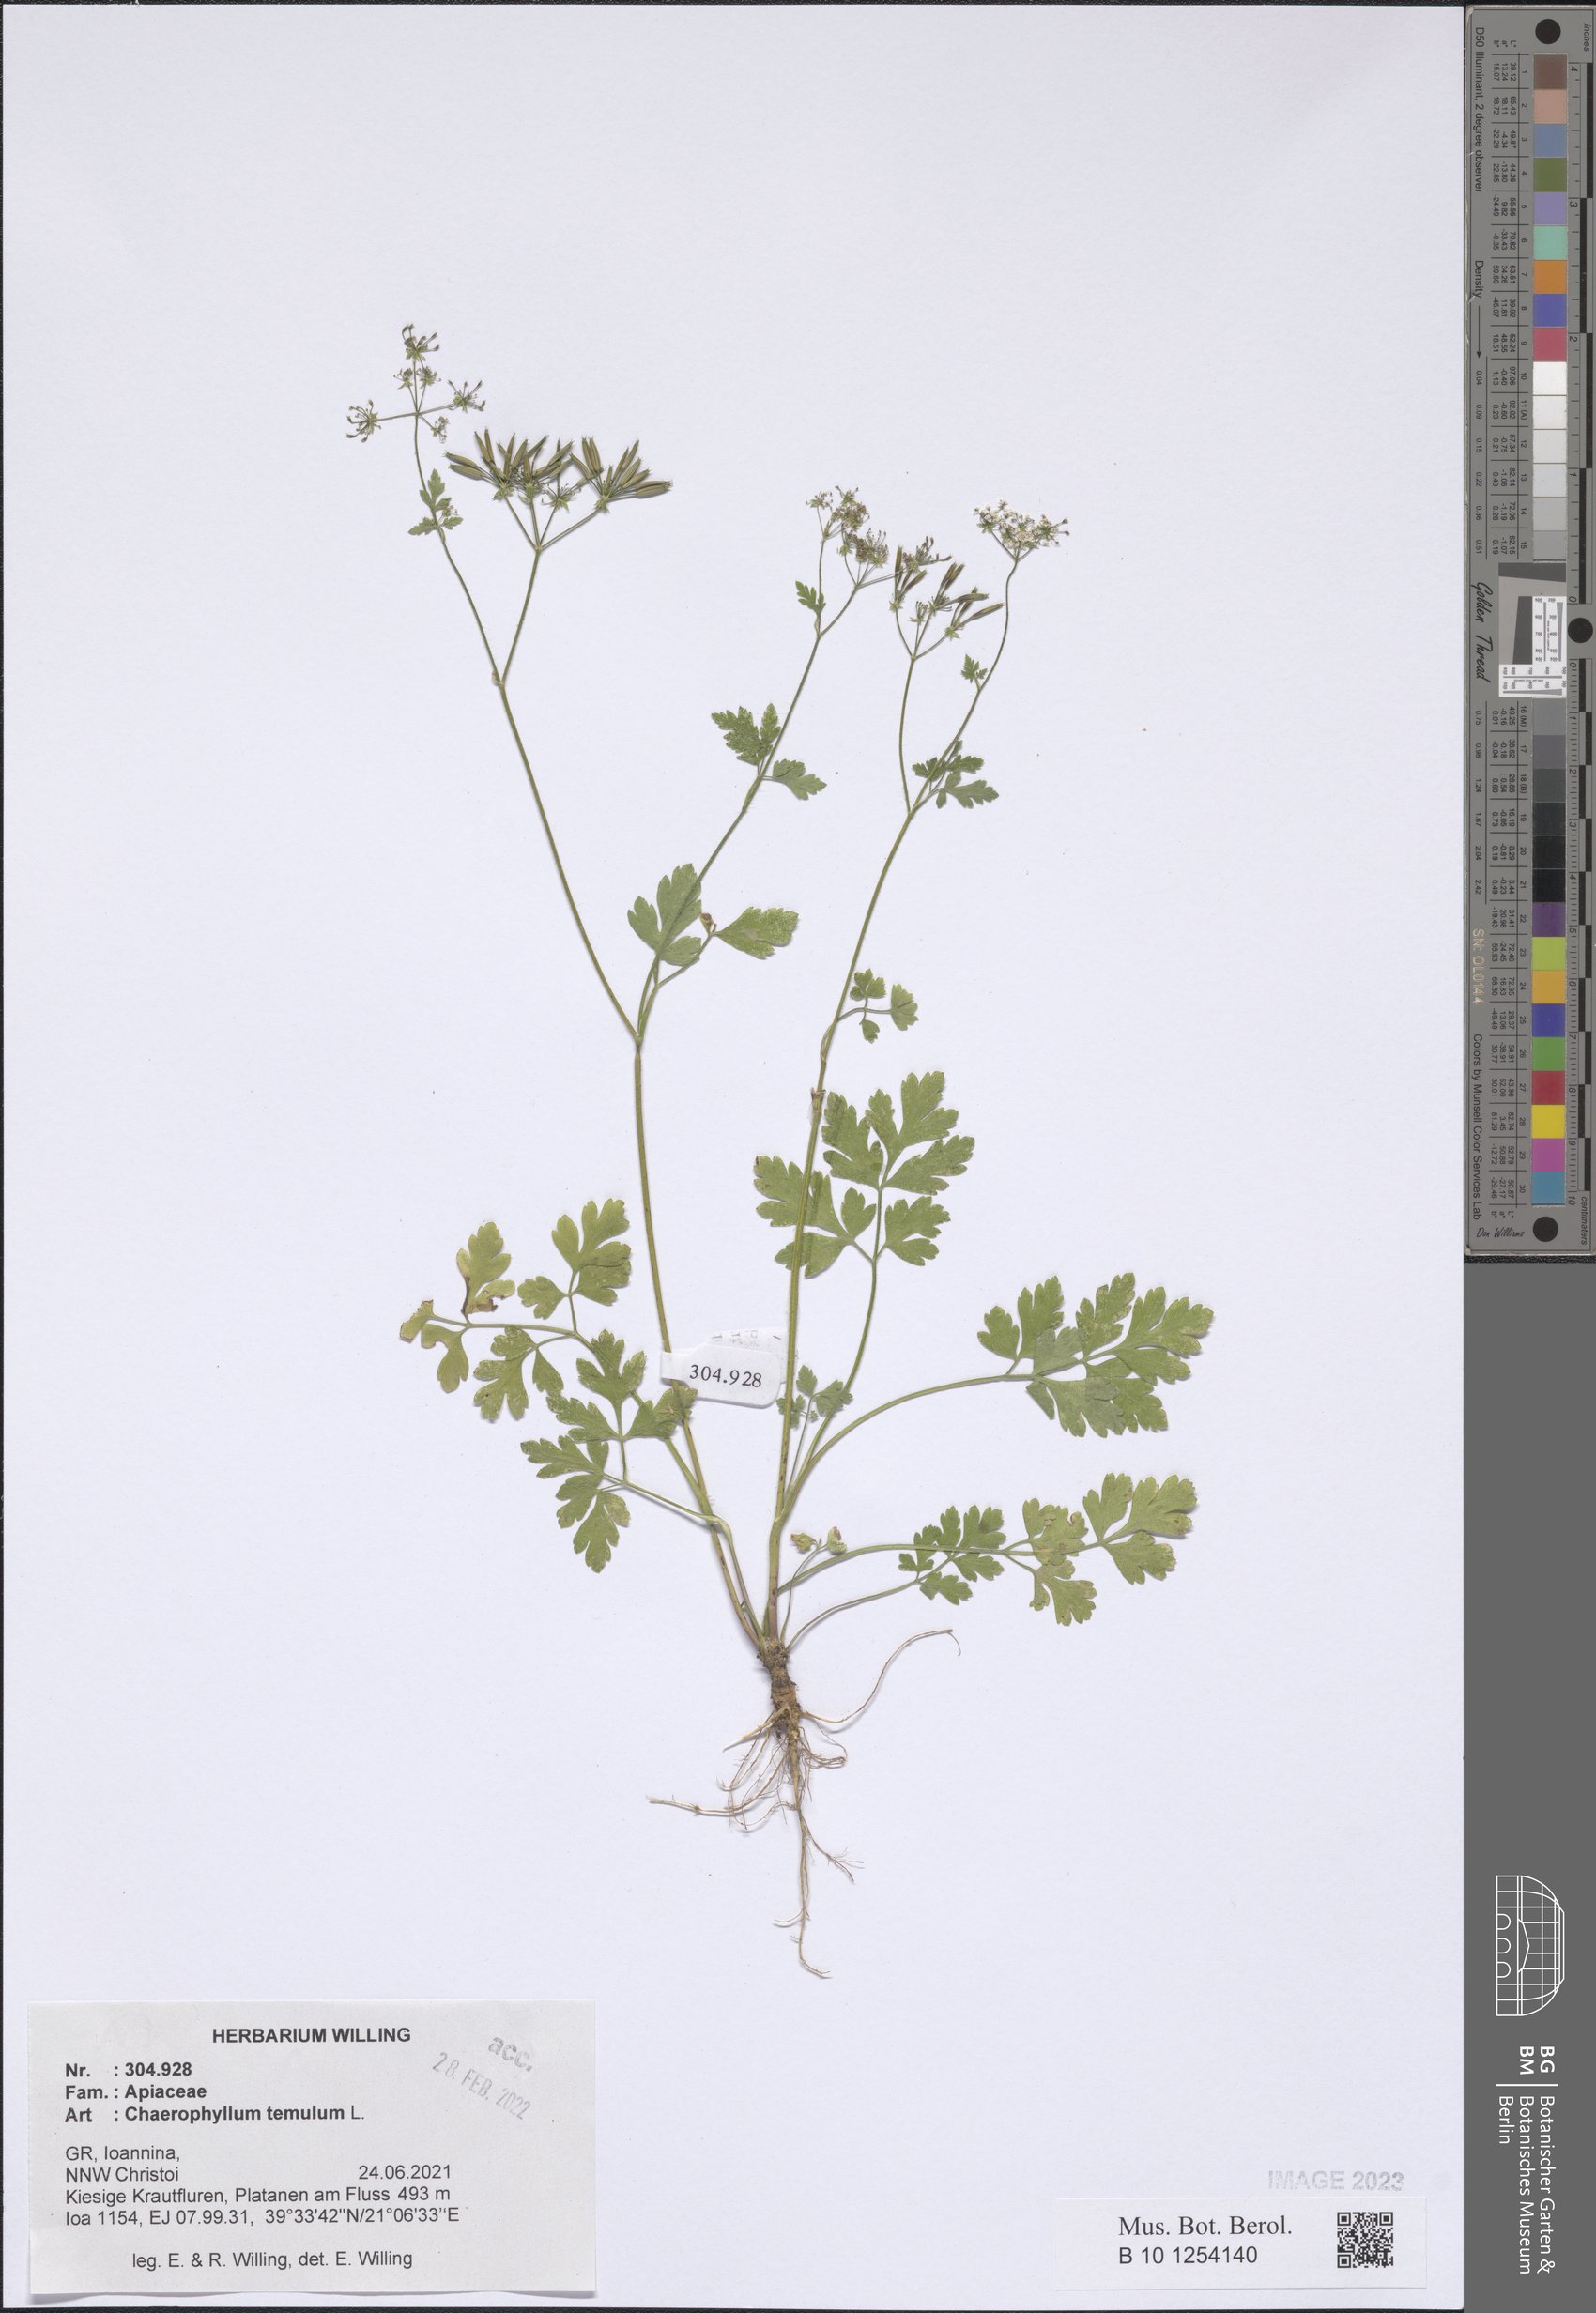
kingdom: Plantae
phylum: Tracheophyta
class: Magnoliopsida
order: Apiales
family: Apiaceae
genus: Chaerophyllum
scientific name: Chaerophyllum temulum
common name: Rough chervil
